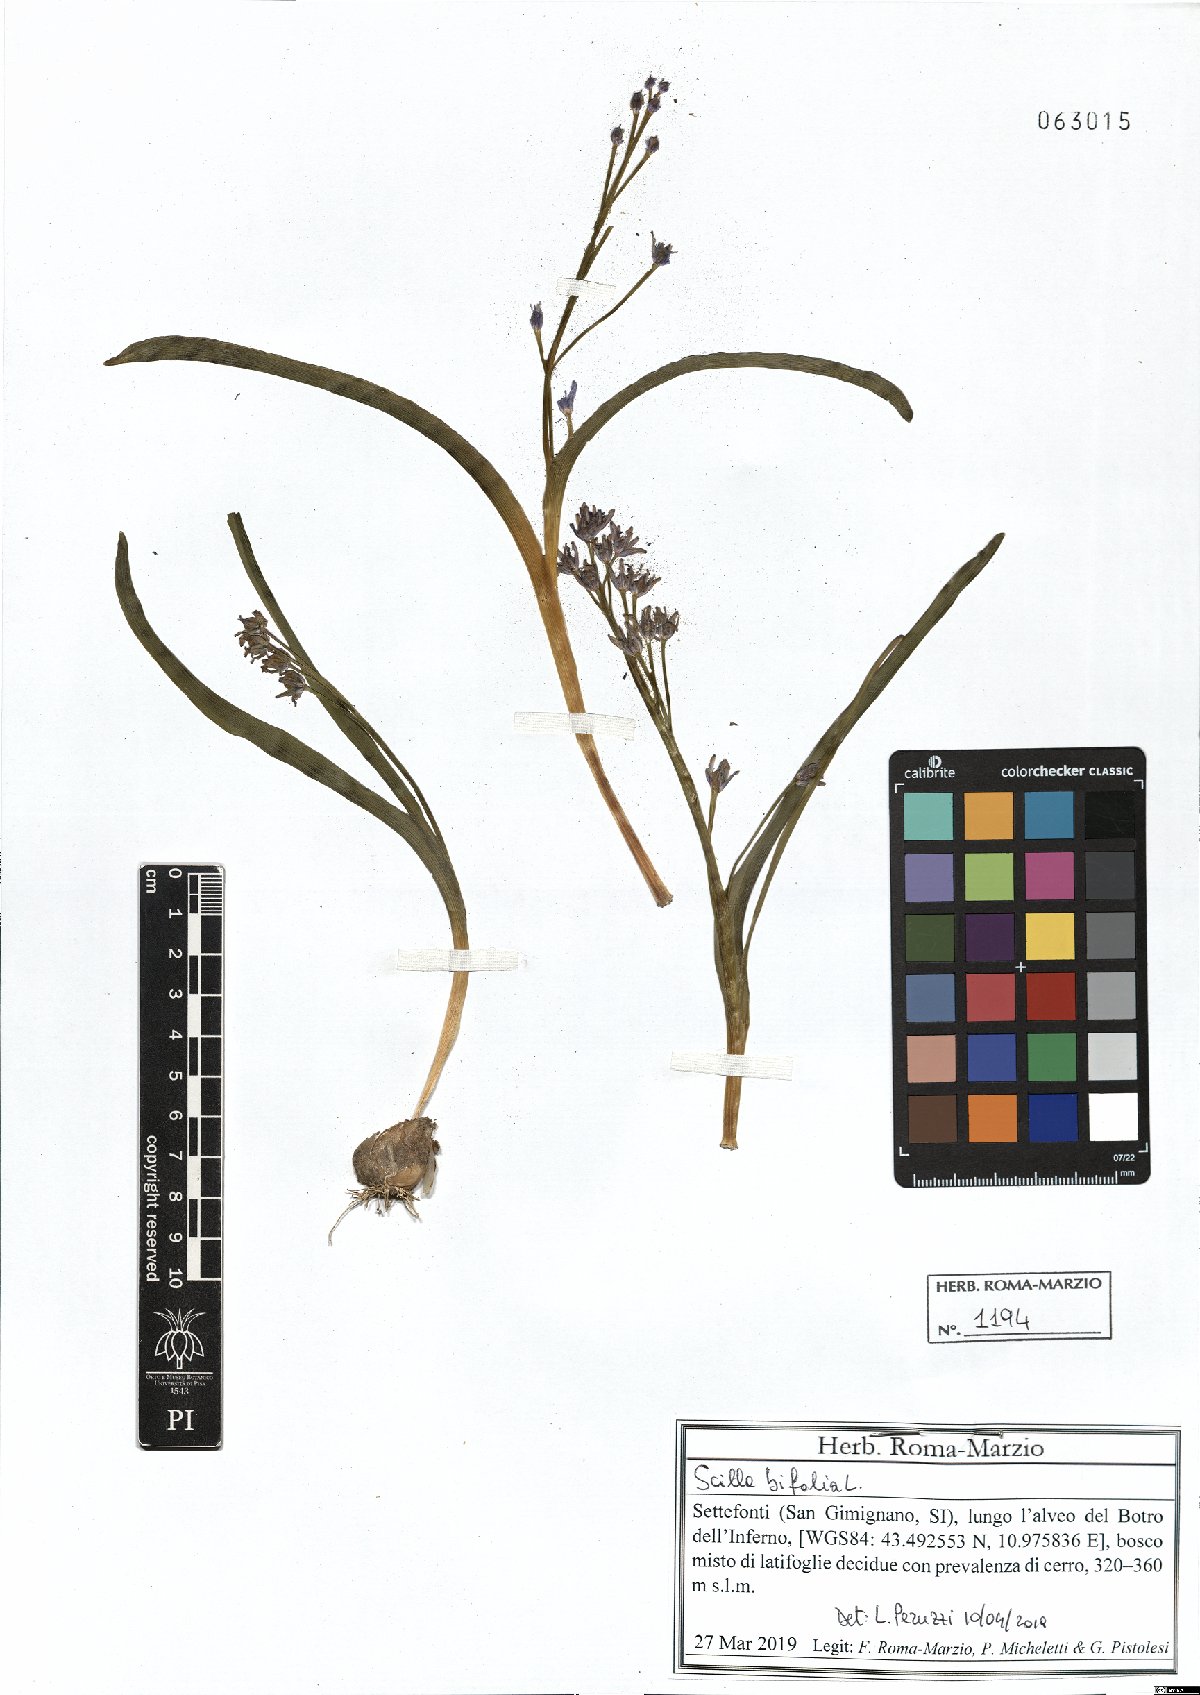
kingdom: Plantae
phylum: Tracheophyta
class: Liliopsida
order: Asparagales
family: Asparagaceae
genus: Scilla
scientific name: Scilla bifolia
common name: Alpine squill
